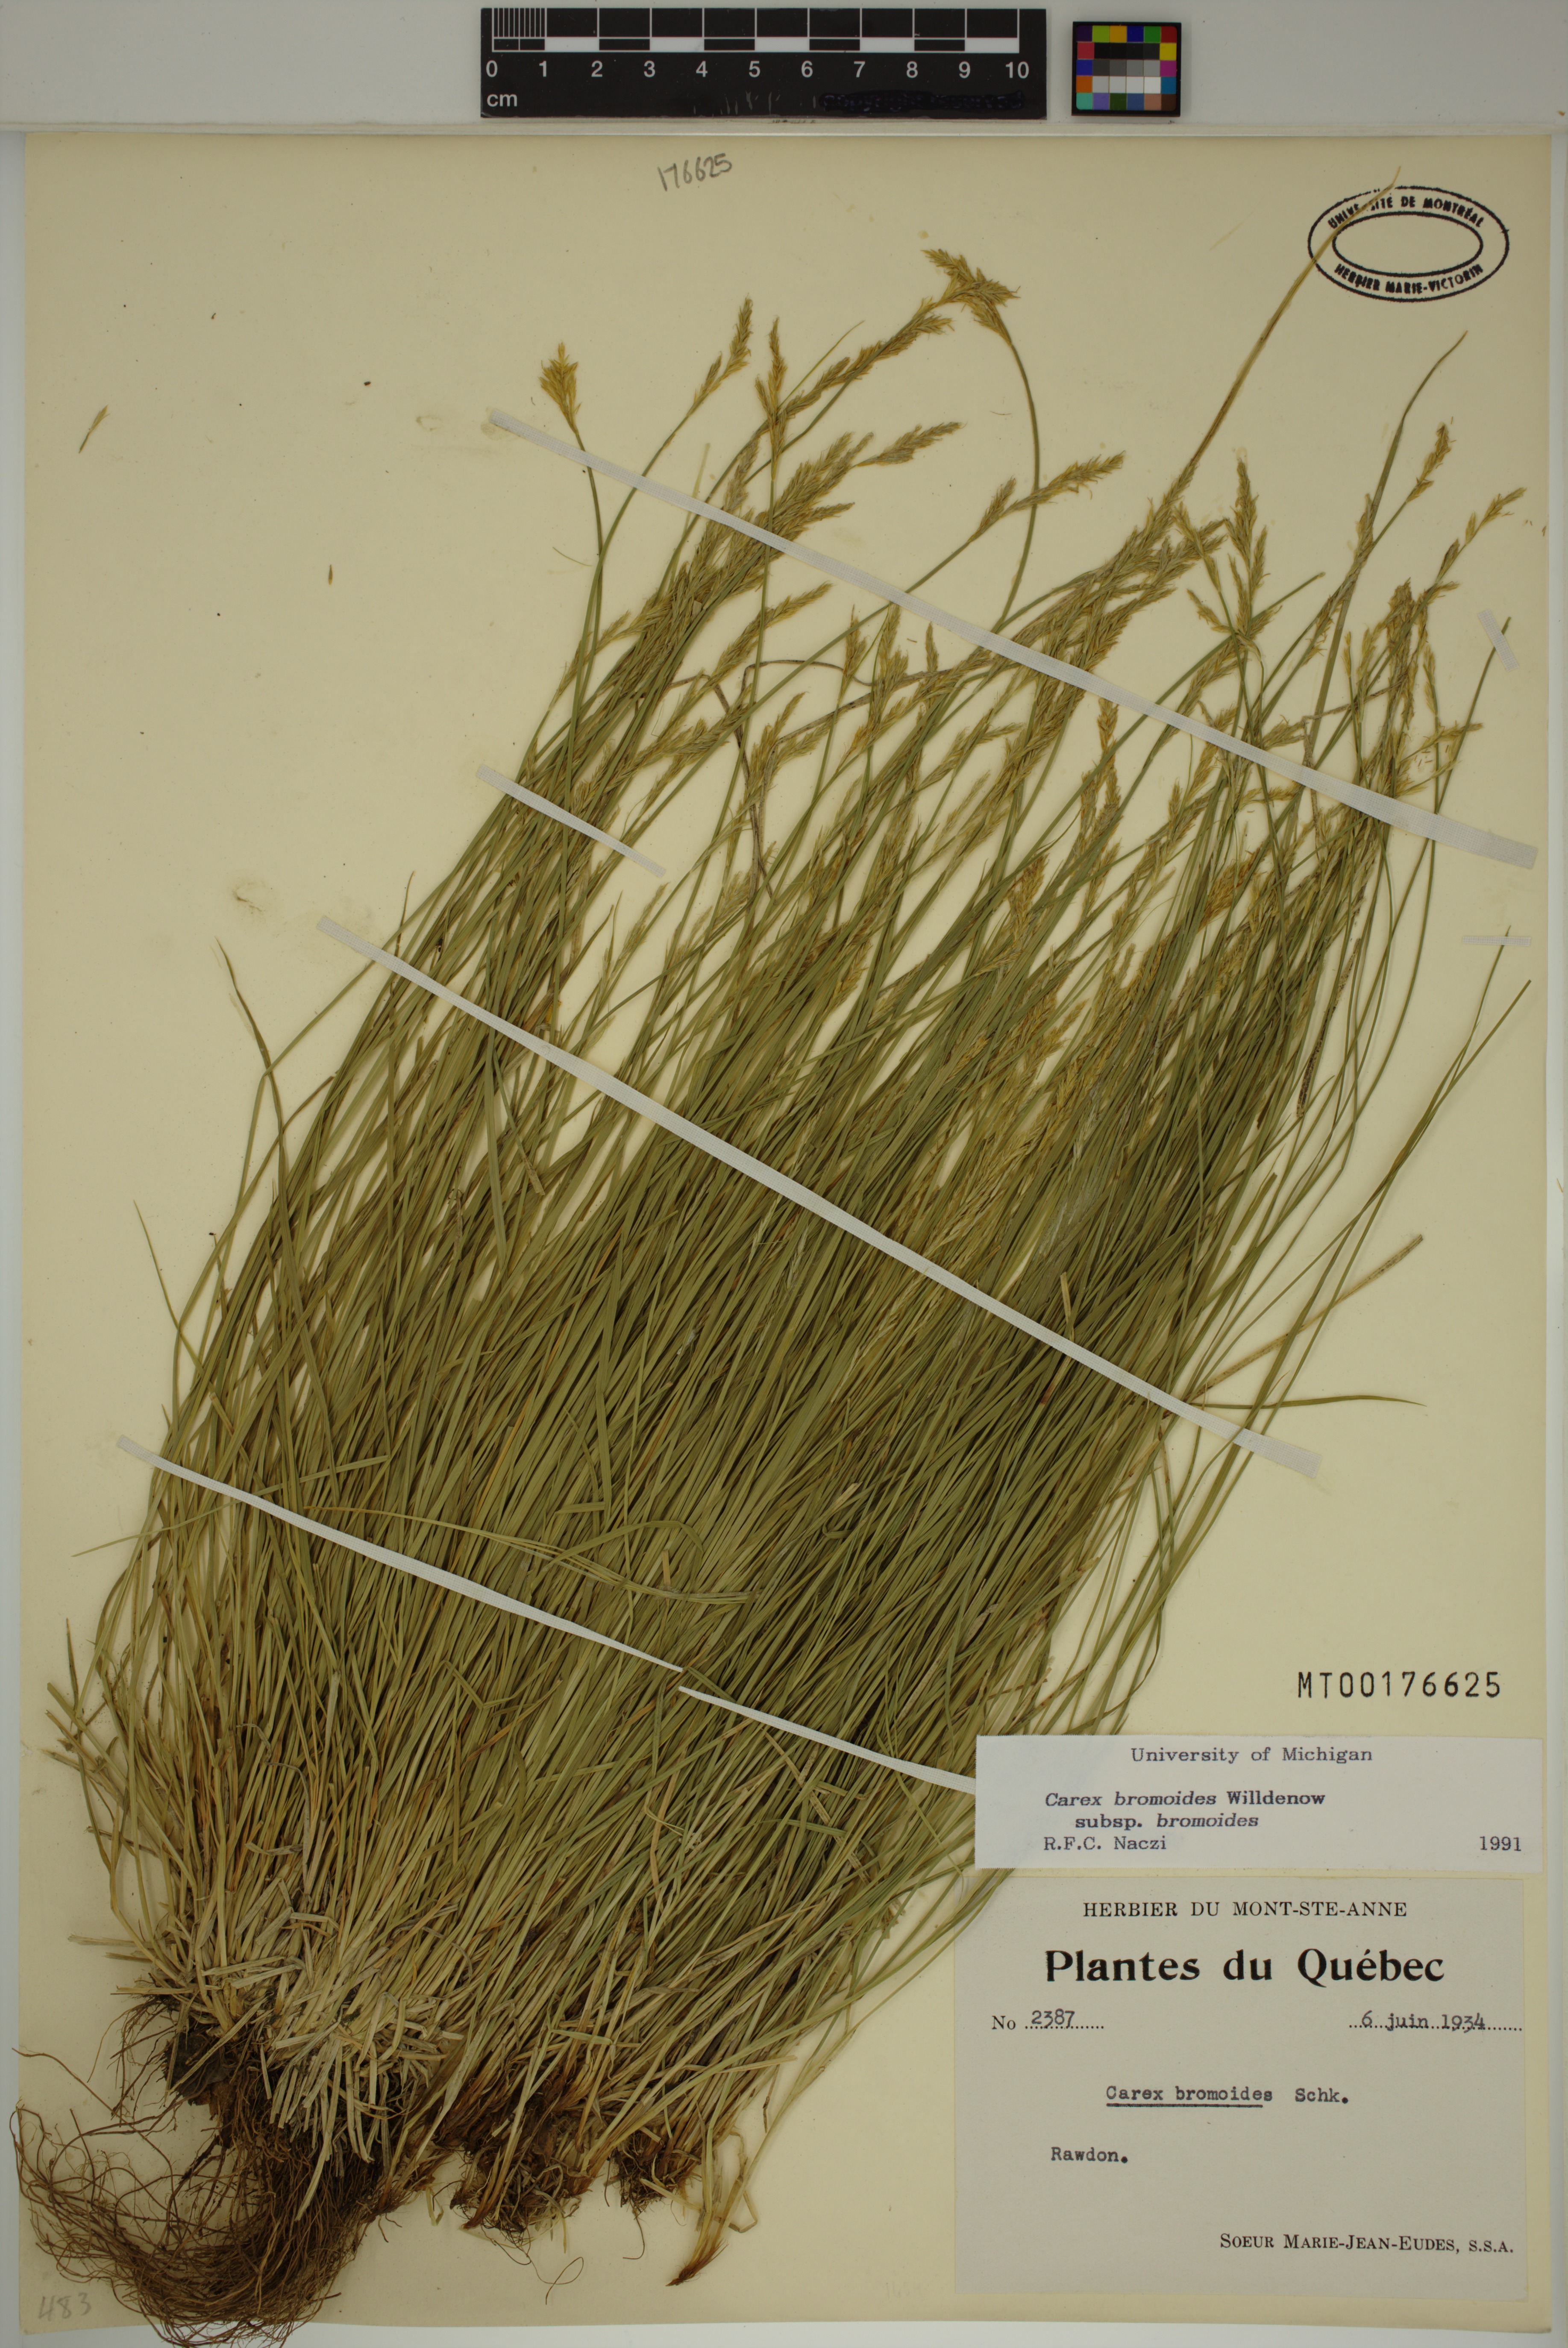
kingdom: Plantae
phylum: Tracheophyta
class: Liliopsida
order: Poales
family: Cyperaceae
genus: Carex
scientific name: Carex bromoides
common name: Brome hummock sedge
